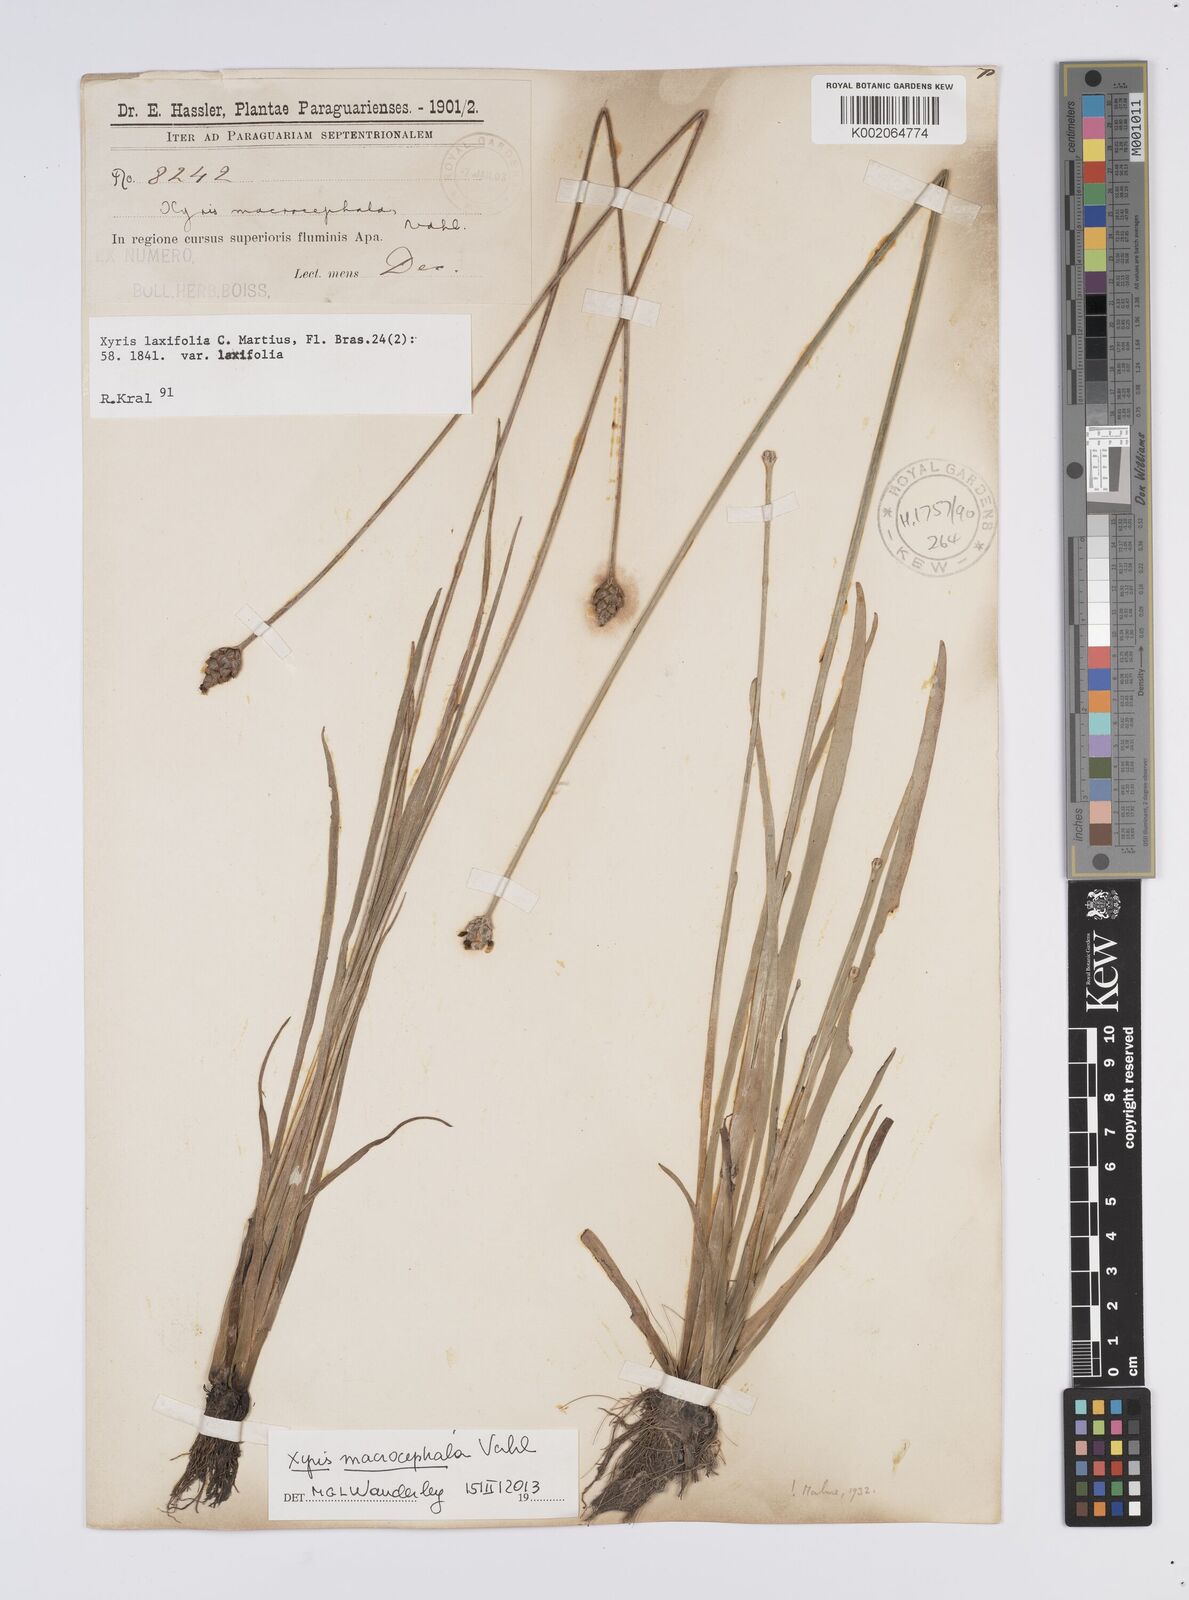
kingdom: Plantae
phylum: Tracheophyta
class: Liliopsida
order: Poales
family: Xyridaceae
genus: Xyris
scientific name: Xyris laxifolia
